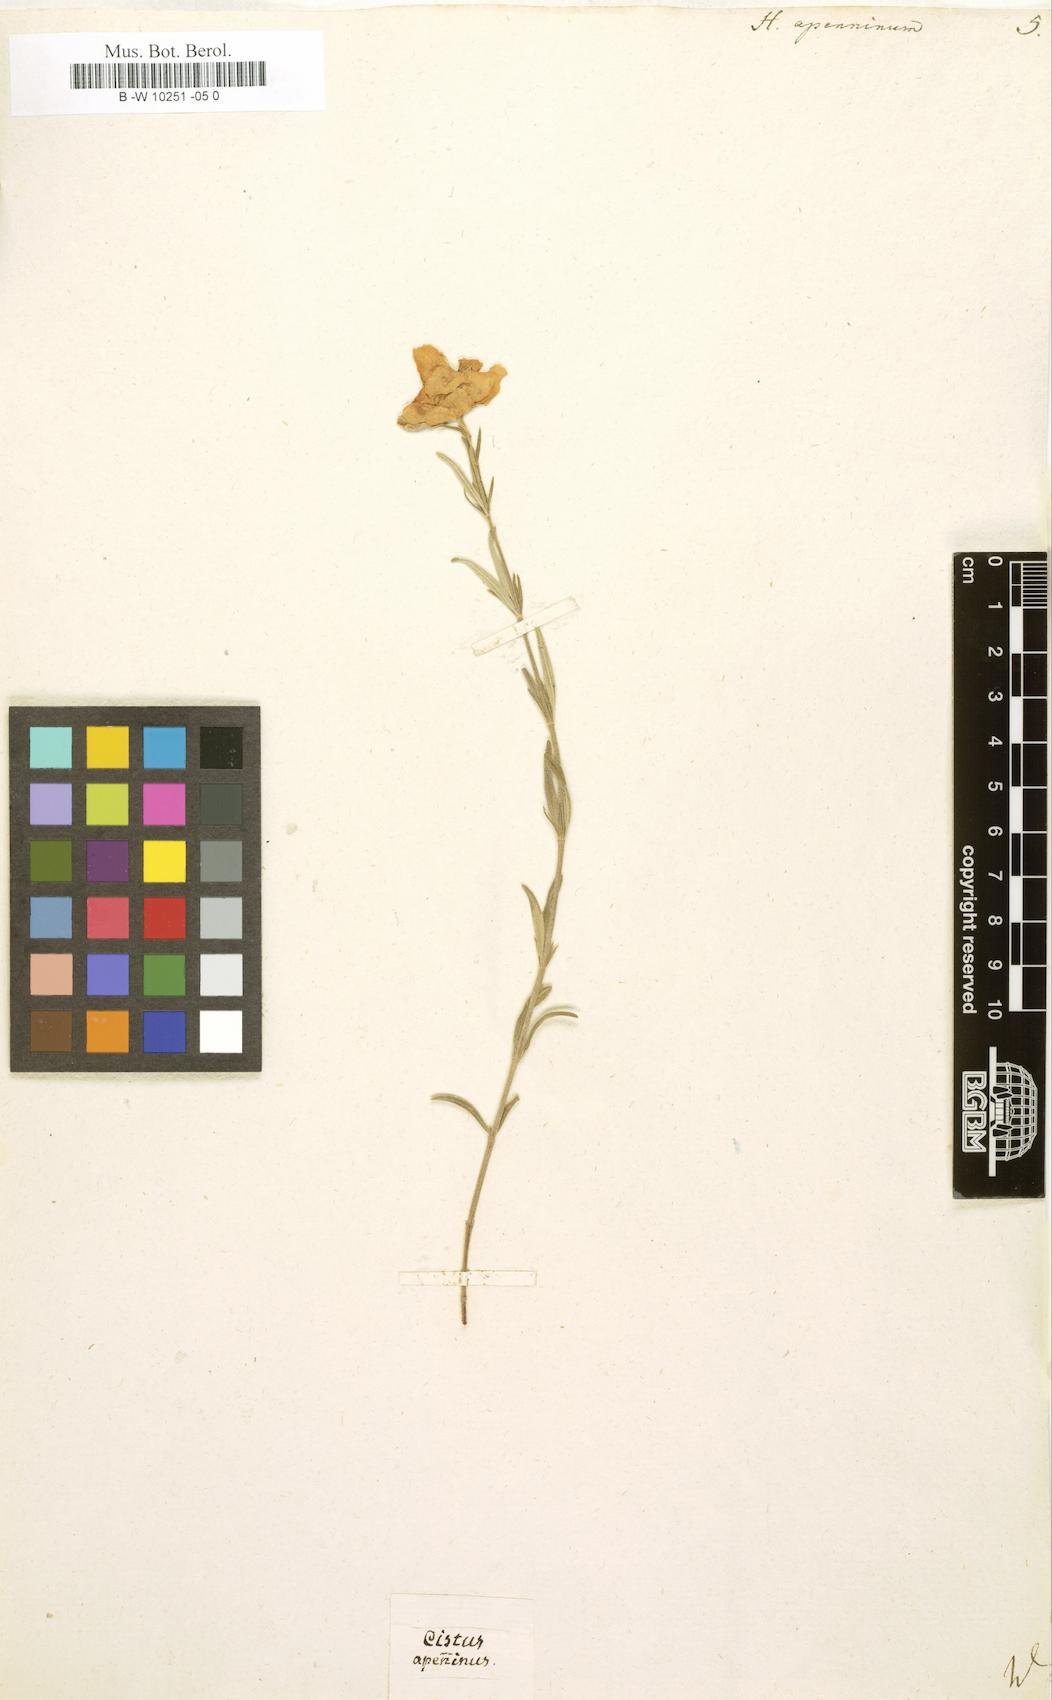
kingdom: Plantae
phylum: Tracheophyta
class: Magnoliopsida
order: Malvales
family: Cistaceae
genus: Helianthemum
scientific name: Helianthemum apenninum
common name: White rock-rose
